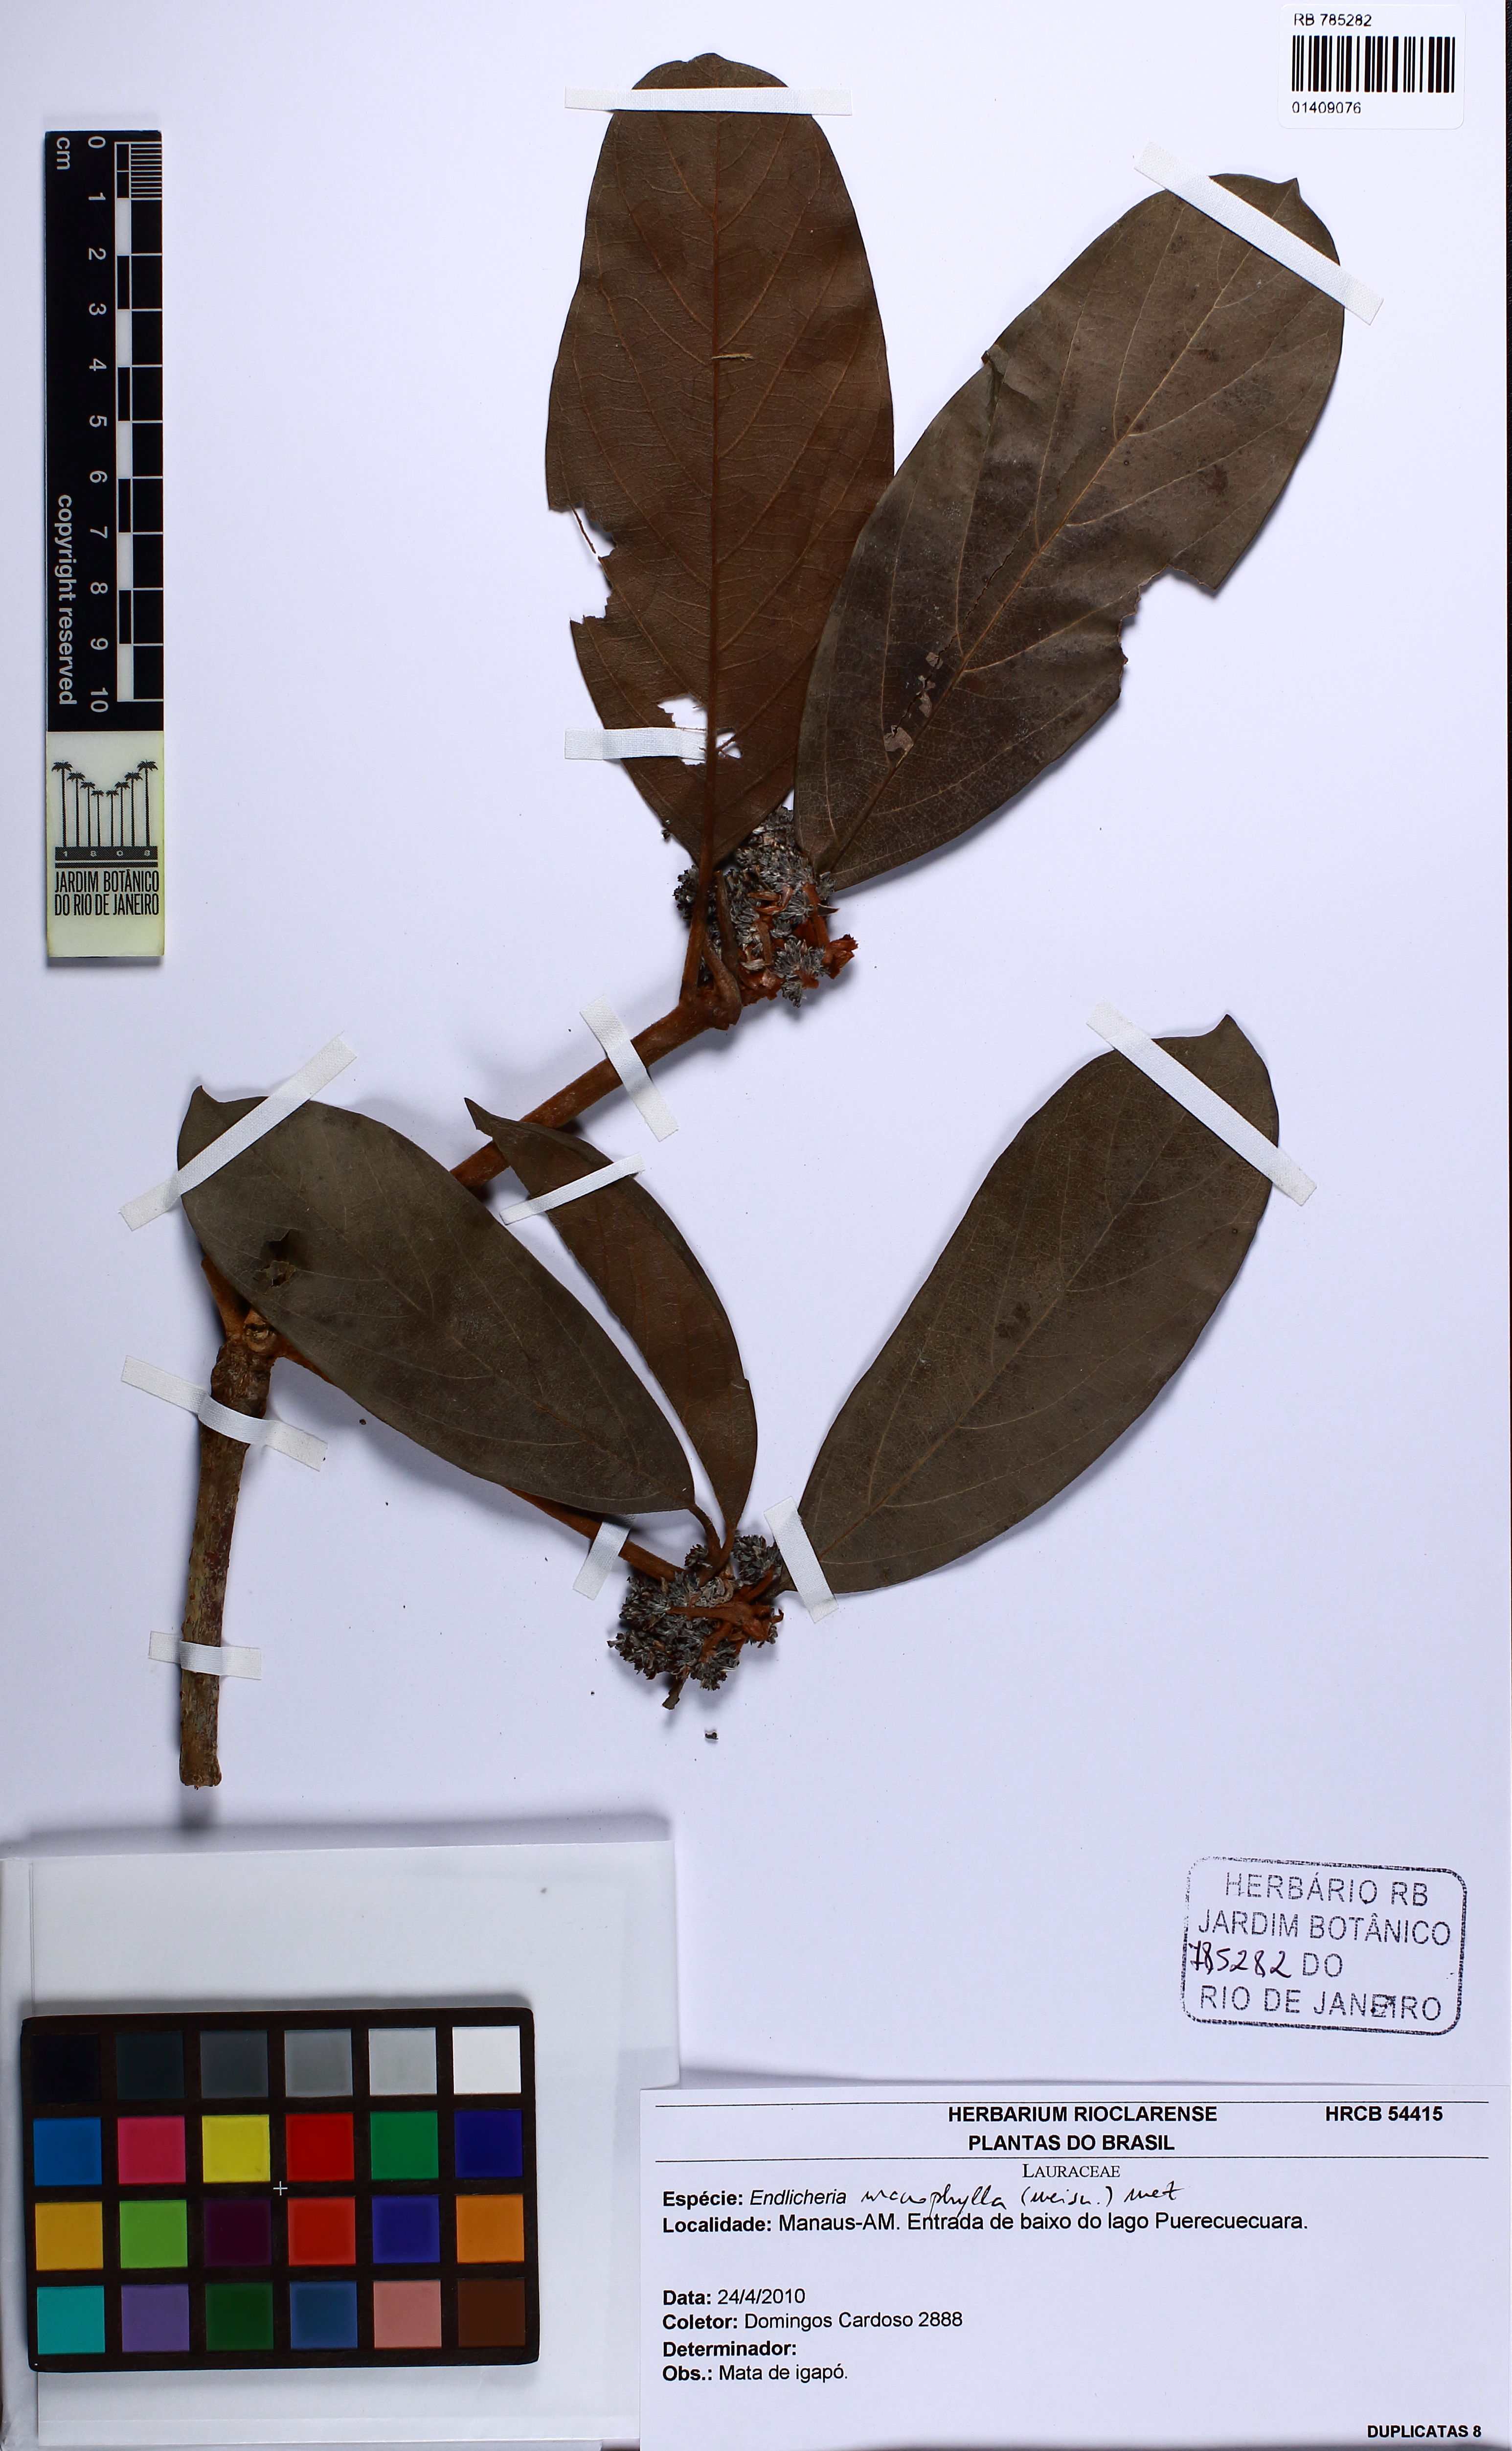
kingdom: Plantae
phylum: Tracheophyta
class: Magnoliopsida
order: Laurales
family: Lauraceae
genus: Endlicheria
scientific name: Endlicheria macrophylla
